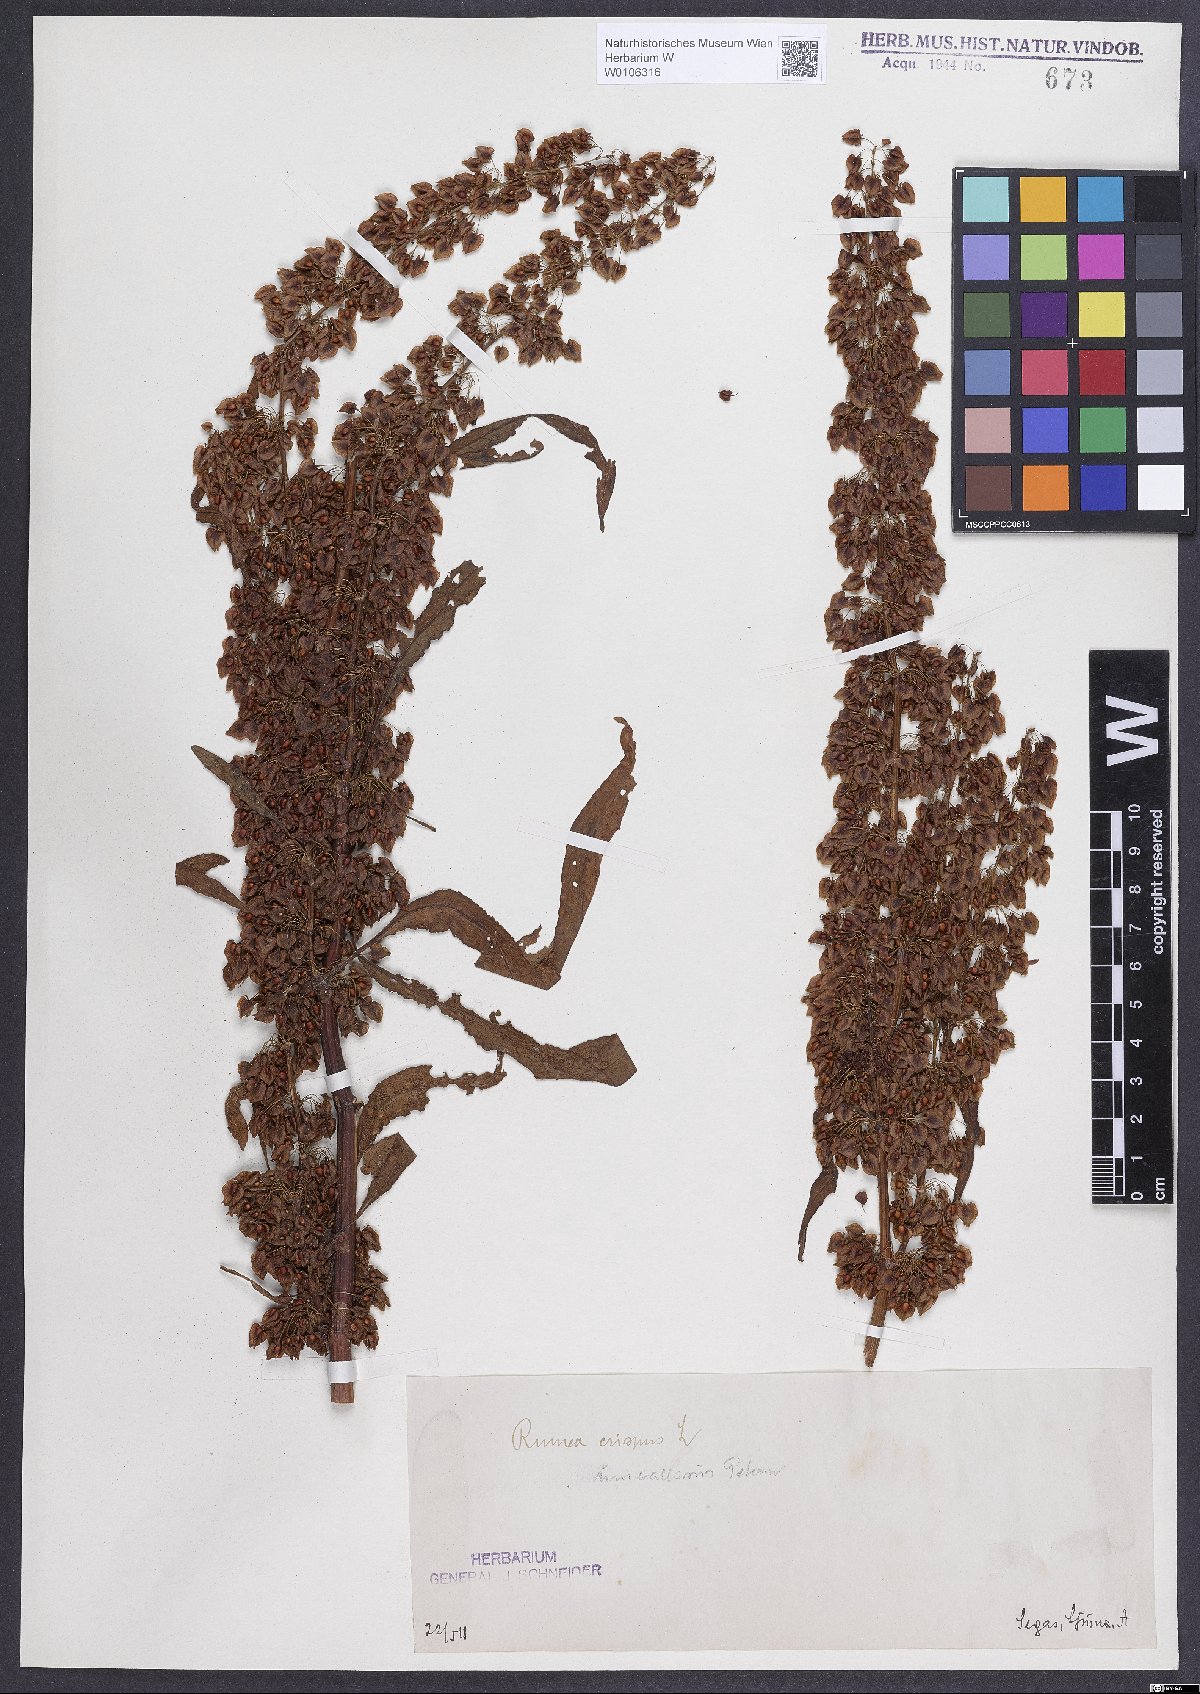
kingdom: Plantae
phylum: Tracheophyta
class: Magnoliopsida
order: Caryophyllales
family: Polygonaceae
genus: Rumex
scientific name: Rumex crispus
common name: Curled dock
